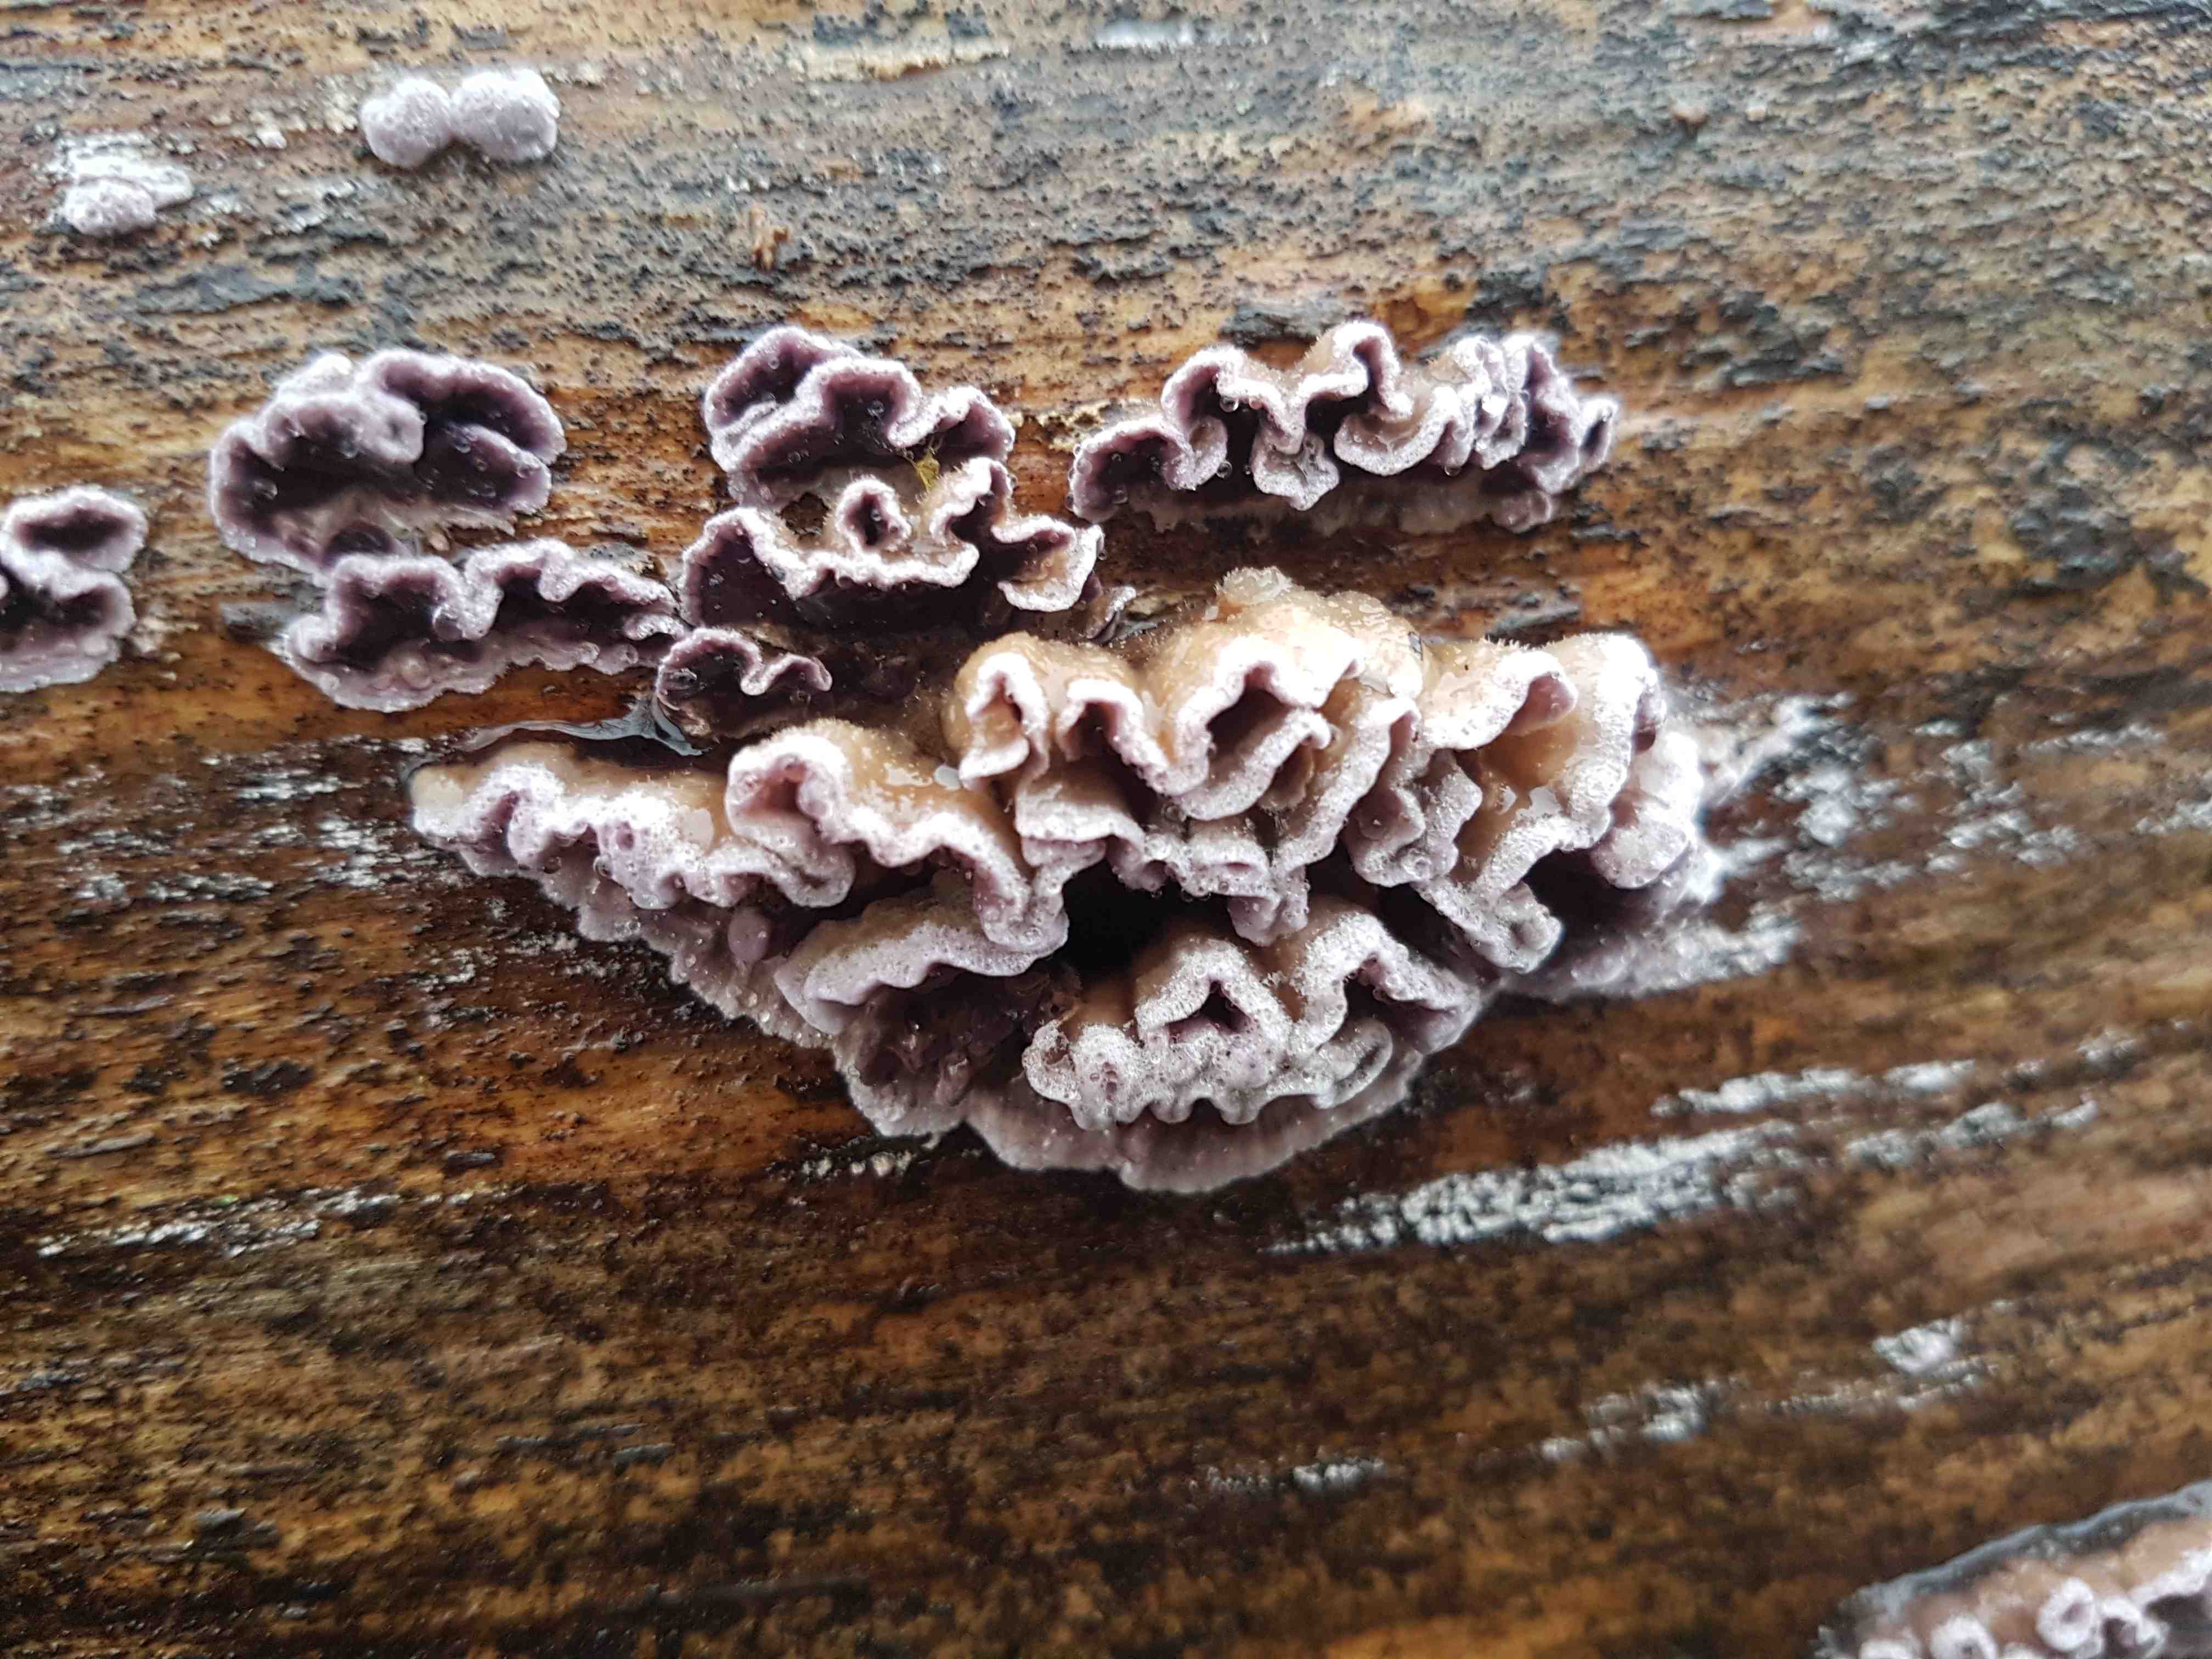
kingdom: Fungi
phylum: Basidiomycota
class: Agaricomycetes
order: Agaricales
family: Cyphellaceae
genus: Chondrostereum
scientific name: Chondrostereum purpureum
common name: purpurlædersvamp
